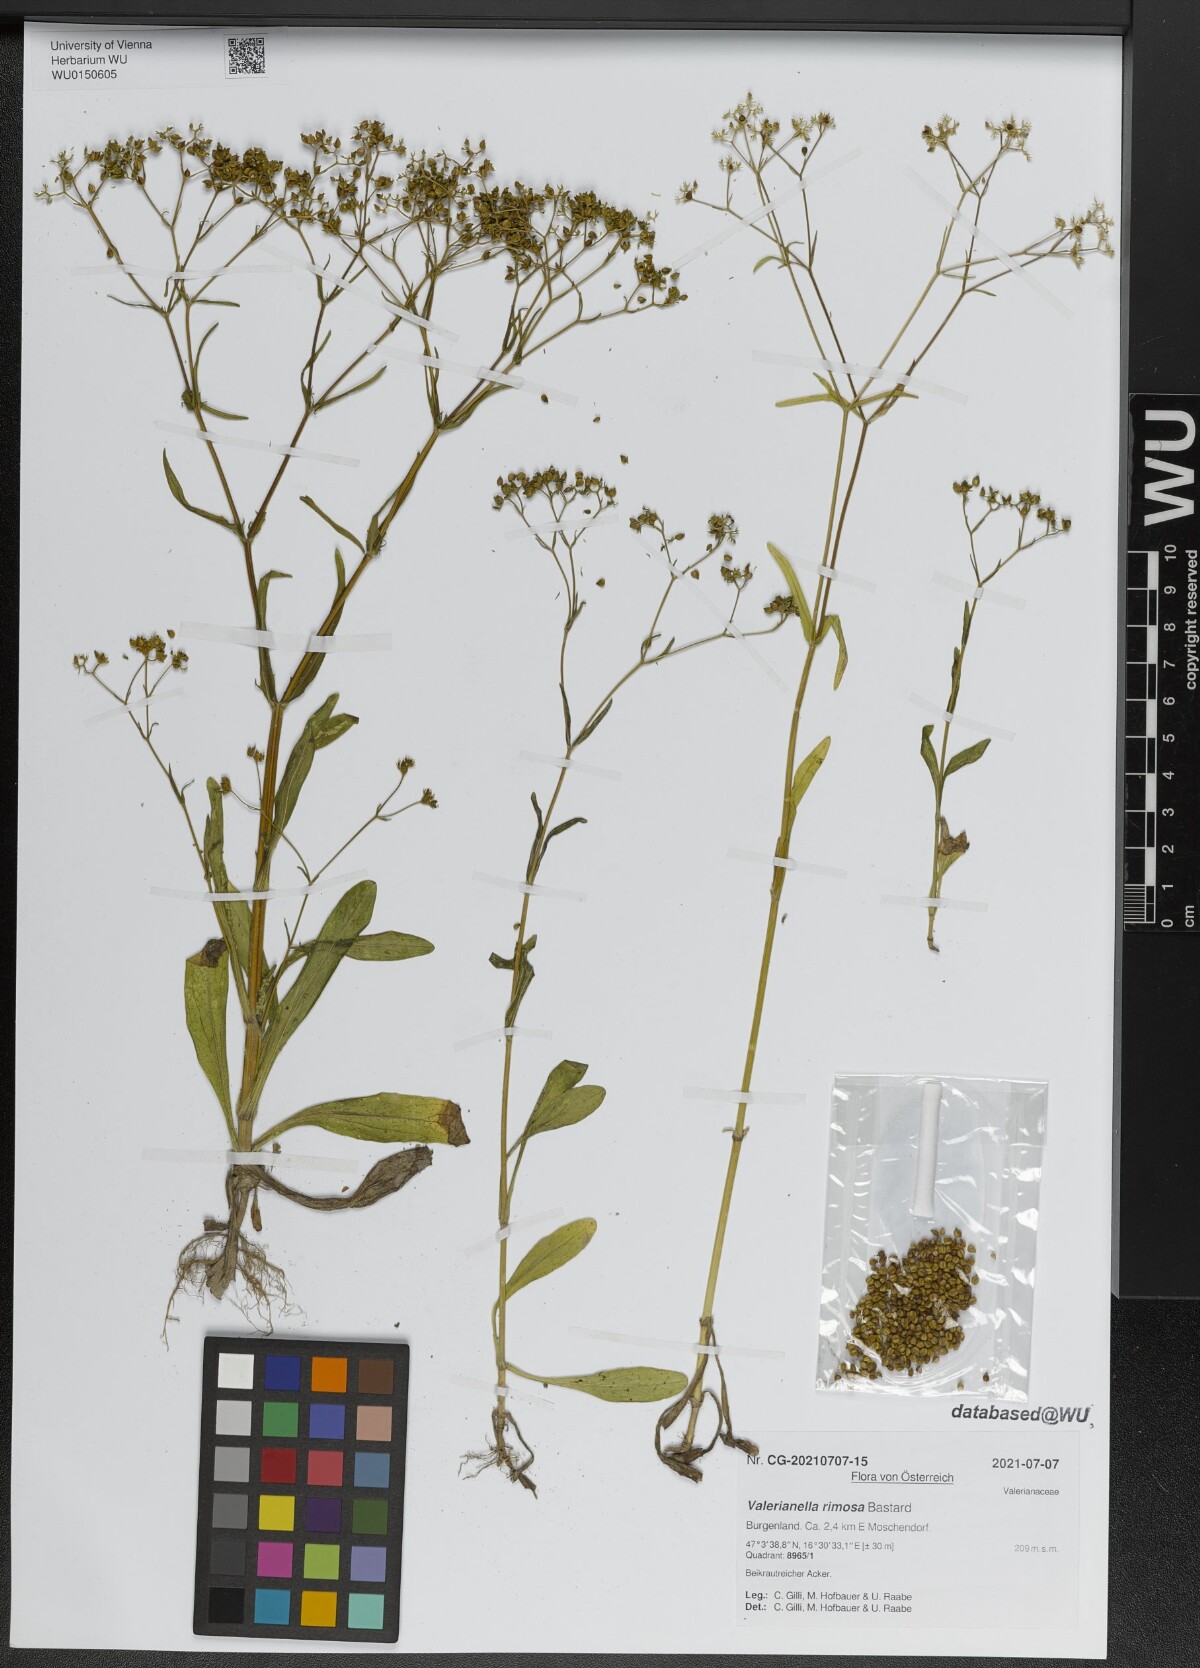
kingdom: Plantae
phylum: Tracheophyta
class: Magnoliopsida
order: Dipsacales
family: Caprifoliaceae
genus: Valerianella
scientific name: Valerianella rimosa
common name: Broad-fruited cornsalad
